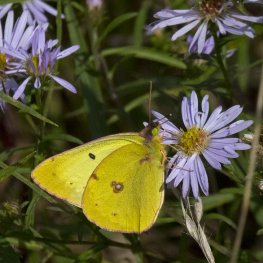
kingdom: Animalia
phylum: Arthropoda
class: Insecta
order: Lepidoptera
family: Pieridae
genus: Colias
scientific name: Colias philodice
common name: Clouded Sulphur
